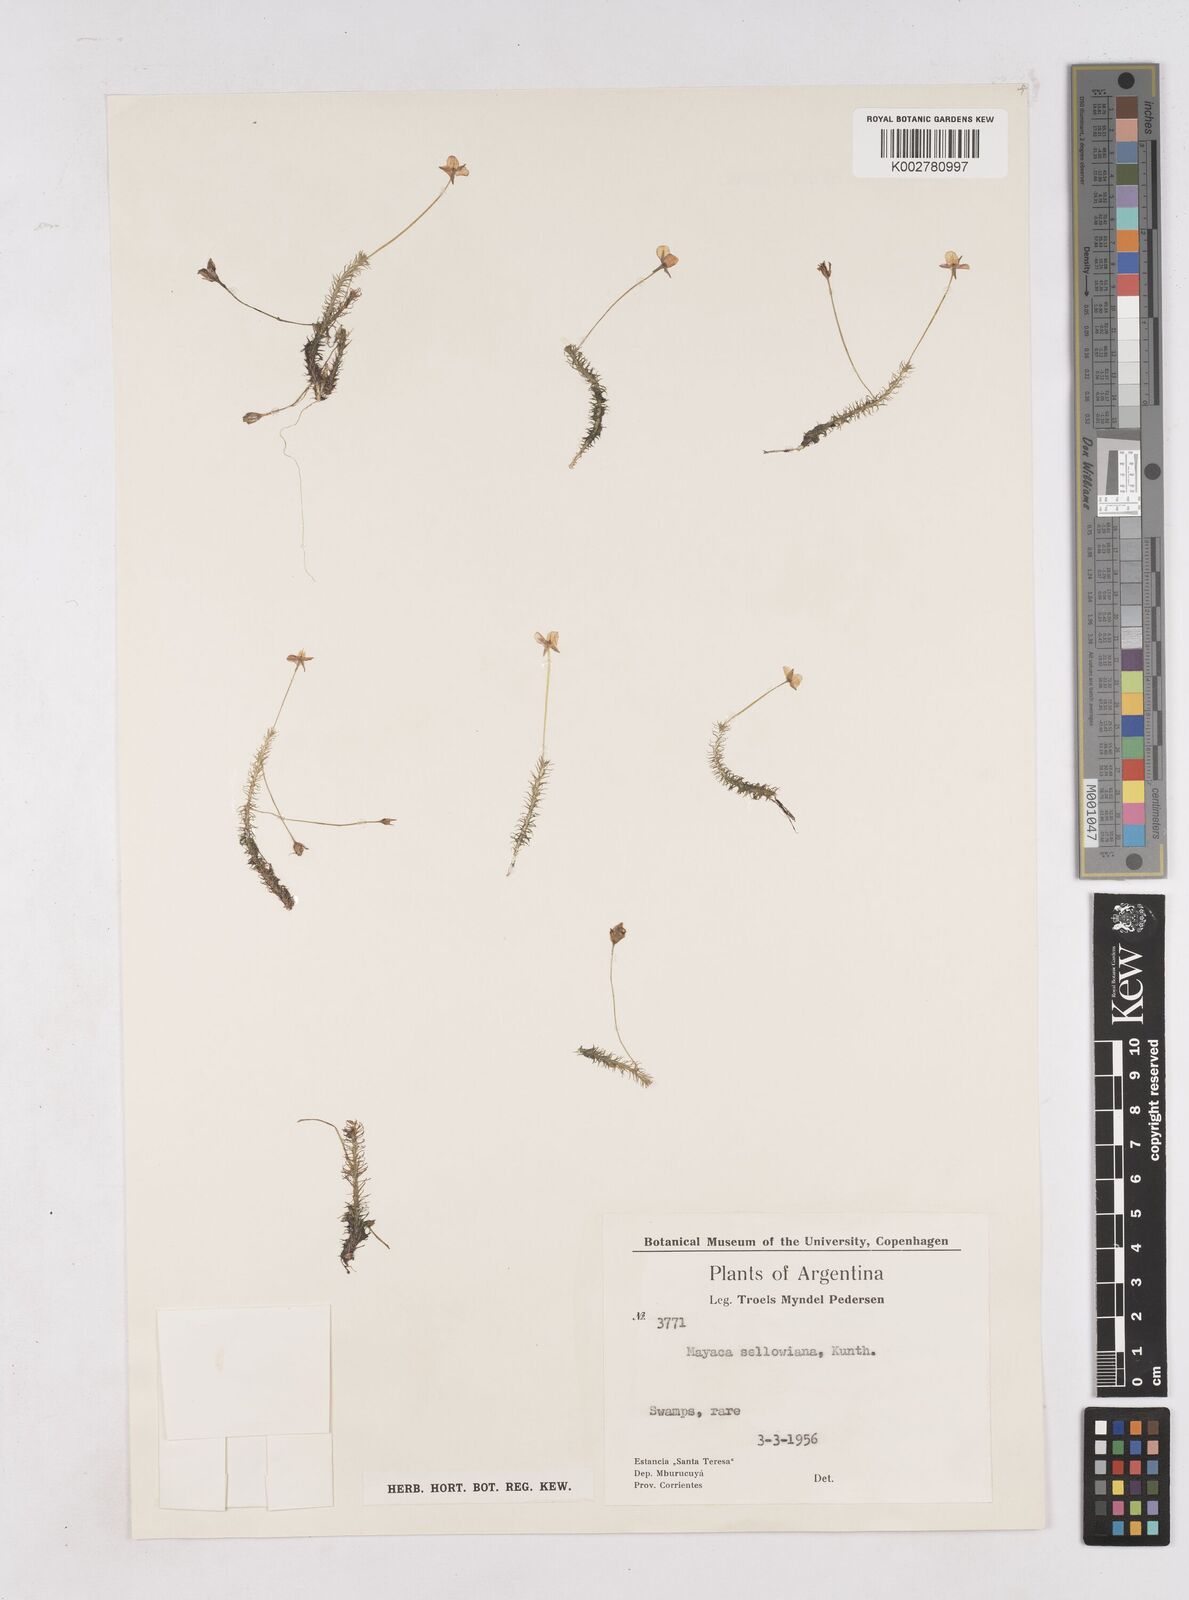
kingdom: Plantae
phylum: Tracheophyta
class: Liliopsida
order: Poales
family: Mayacaceae
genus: Mayaca
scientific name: Mayaca sellowiana
